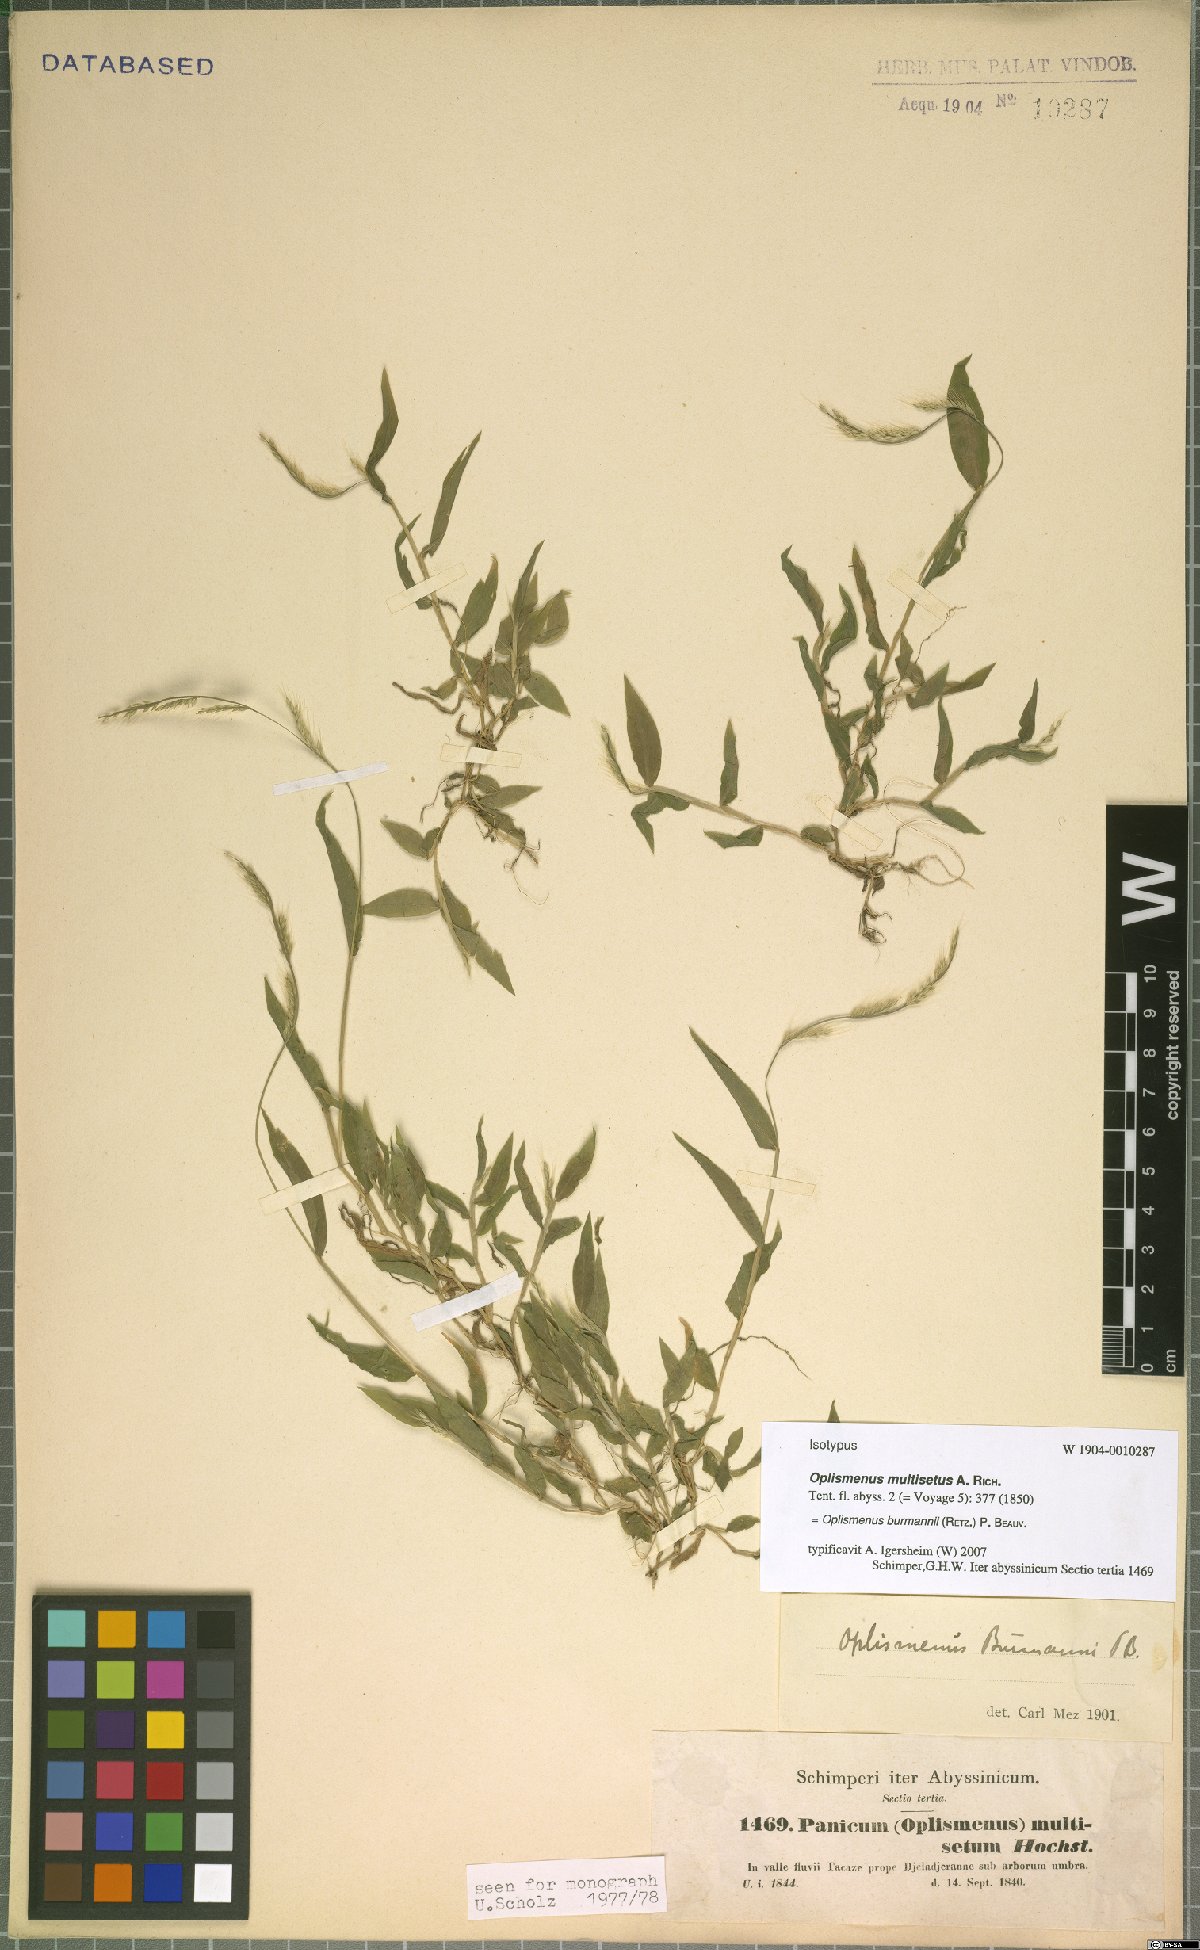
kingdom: Plantae
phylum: Tracheophyta
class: Liliopsida
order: Poales
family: Poaceae
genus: Oplismenus
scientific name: Oplismenus burmanni
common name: Burmann's basketgrass
